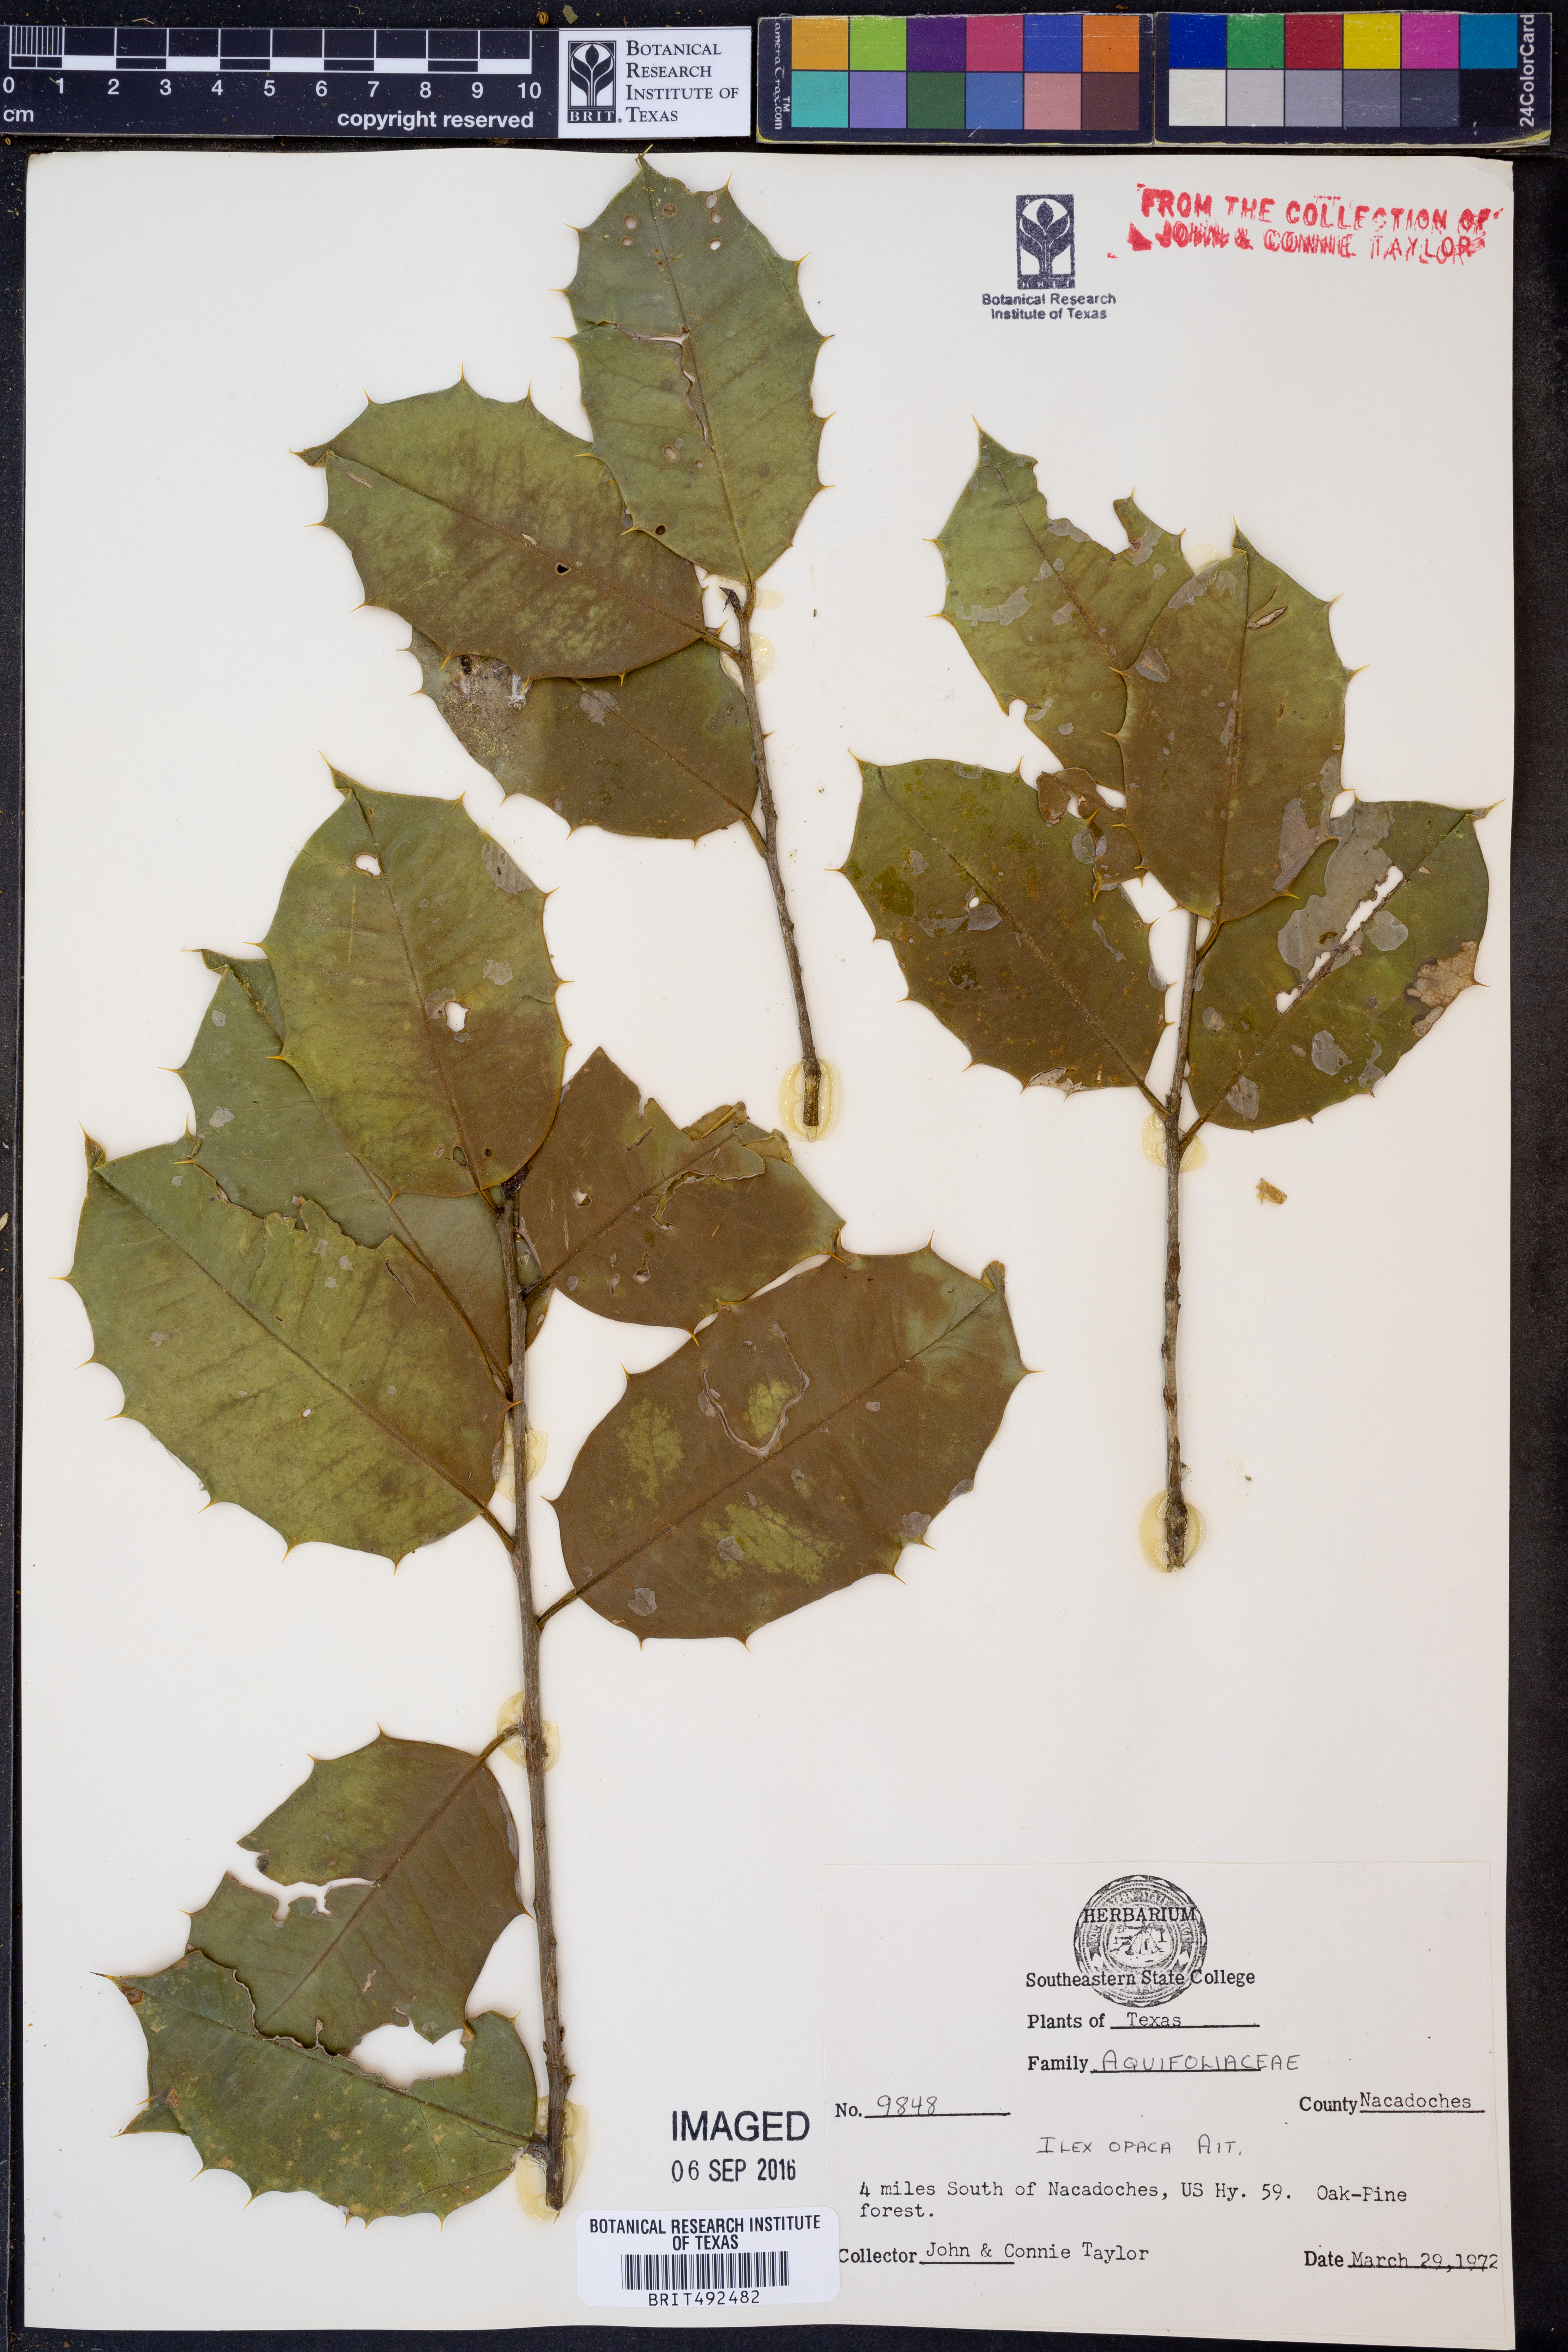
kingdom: Plantae
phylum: Tracheophyta
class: Magnoliopsida
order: Aquifoliales
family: Aquifoliaceae
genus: Ilex
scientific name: Ilex opaca
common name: American holly
